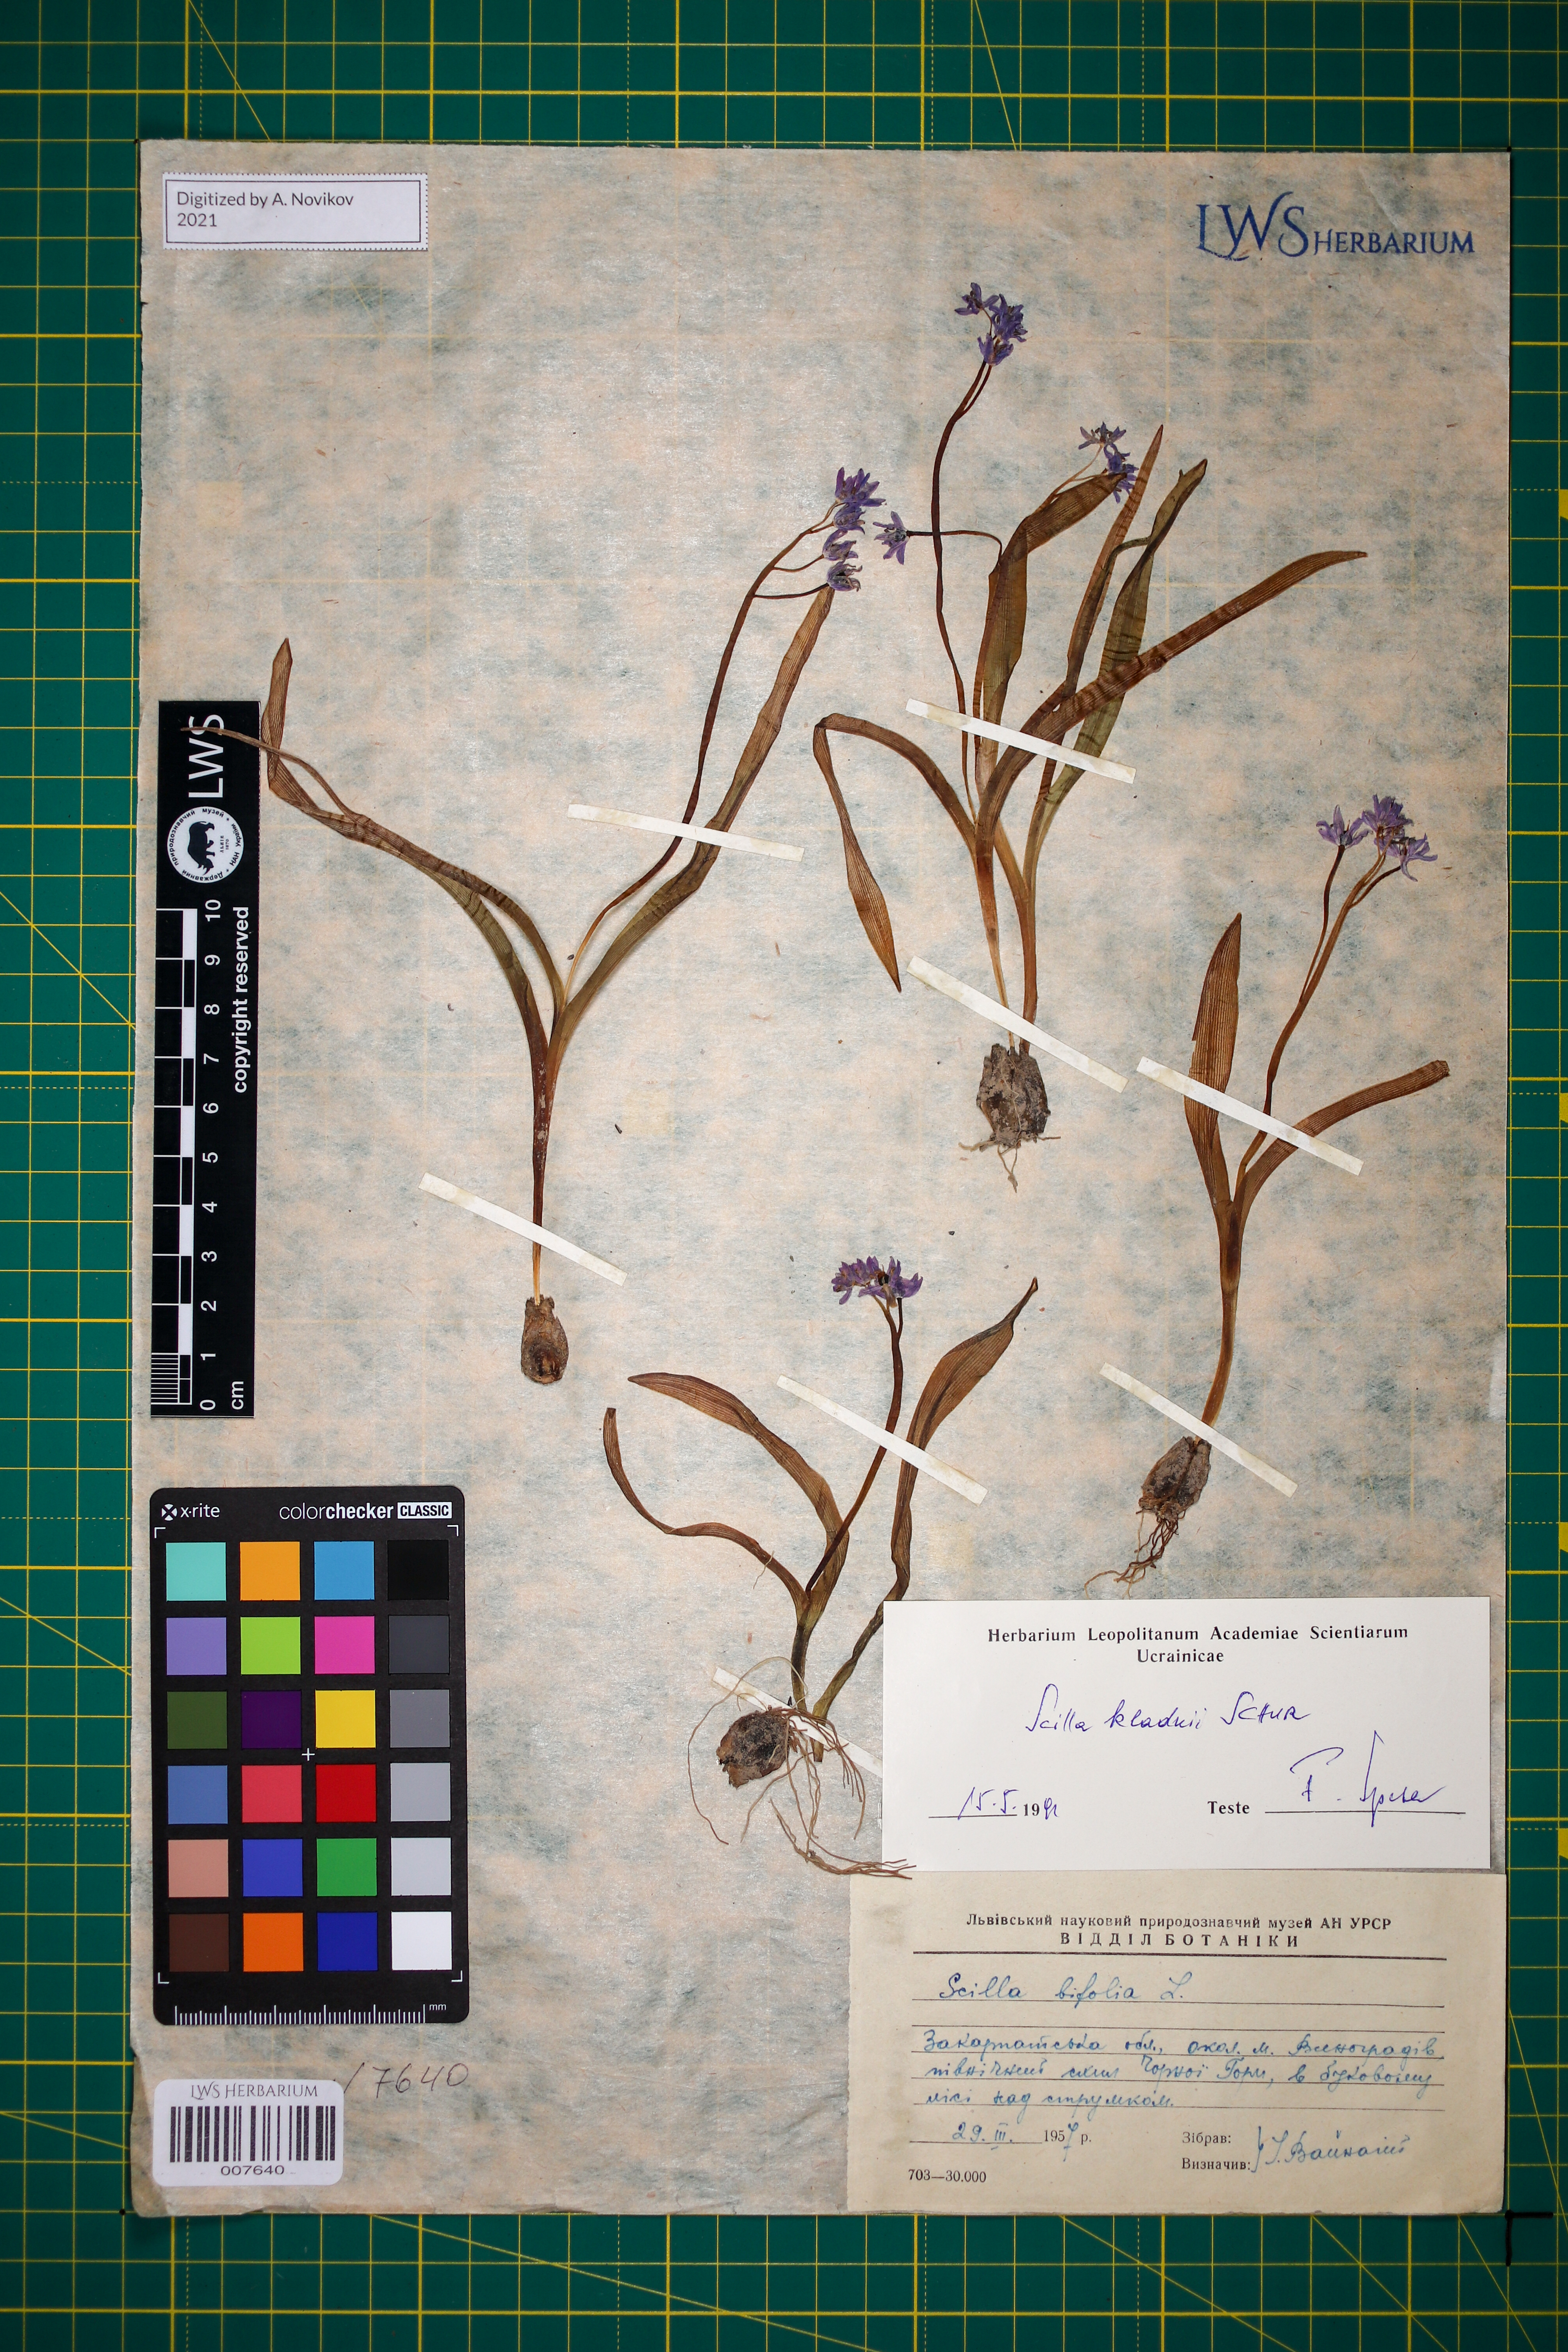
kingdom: Plantae
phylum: Tracheophyta
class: Liliopsida
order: Asparagales
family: Asparagaceae
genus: Scilla
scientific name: Scilla kladnii
